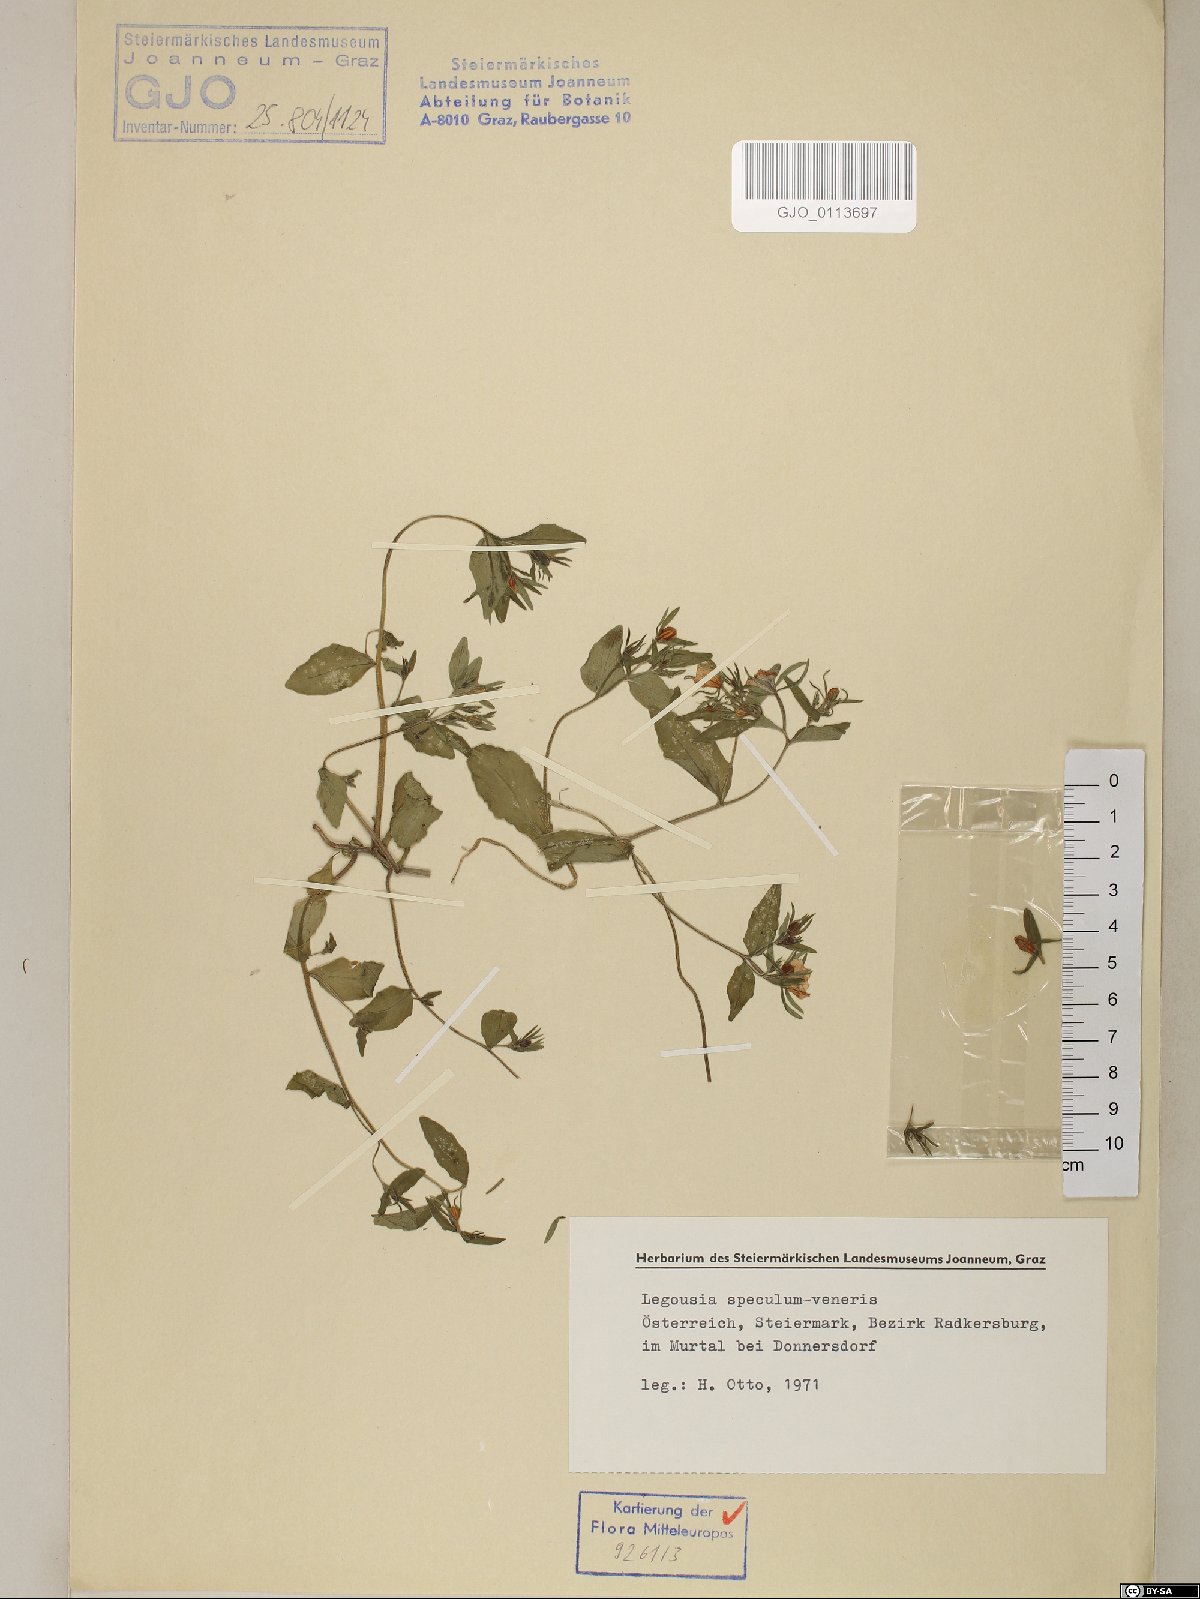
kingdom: Plantae
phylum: Tracheophyta
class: Magnoliopsida
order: Asterales
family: Campanulaceae
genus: Legousia
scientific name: Legousia speculum-veneris
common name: Large venus's-looking-glass
